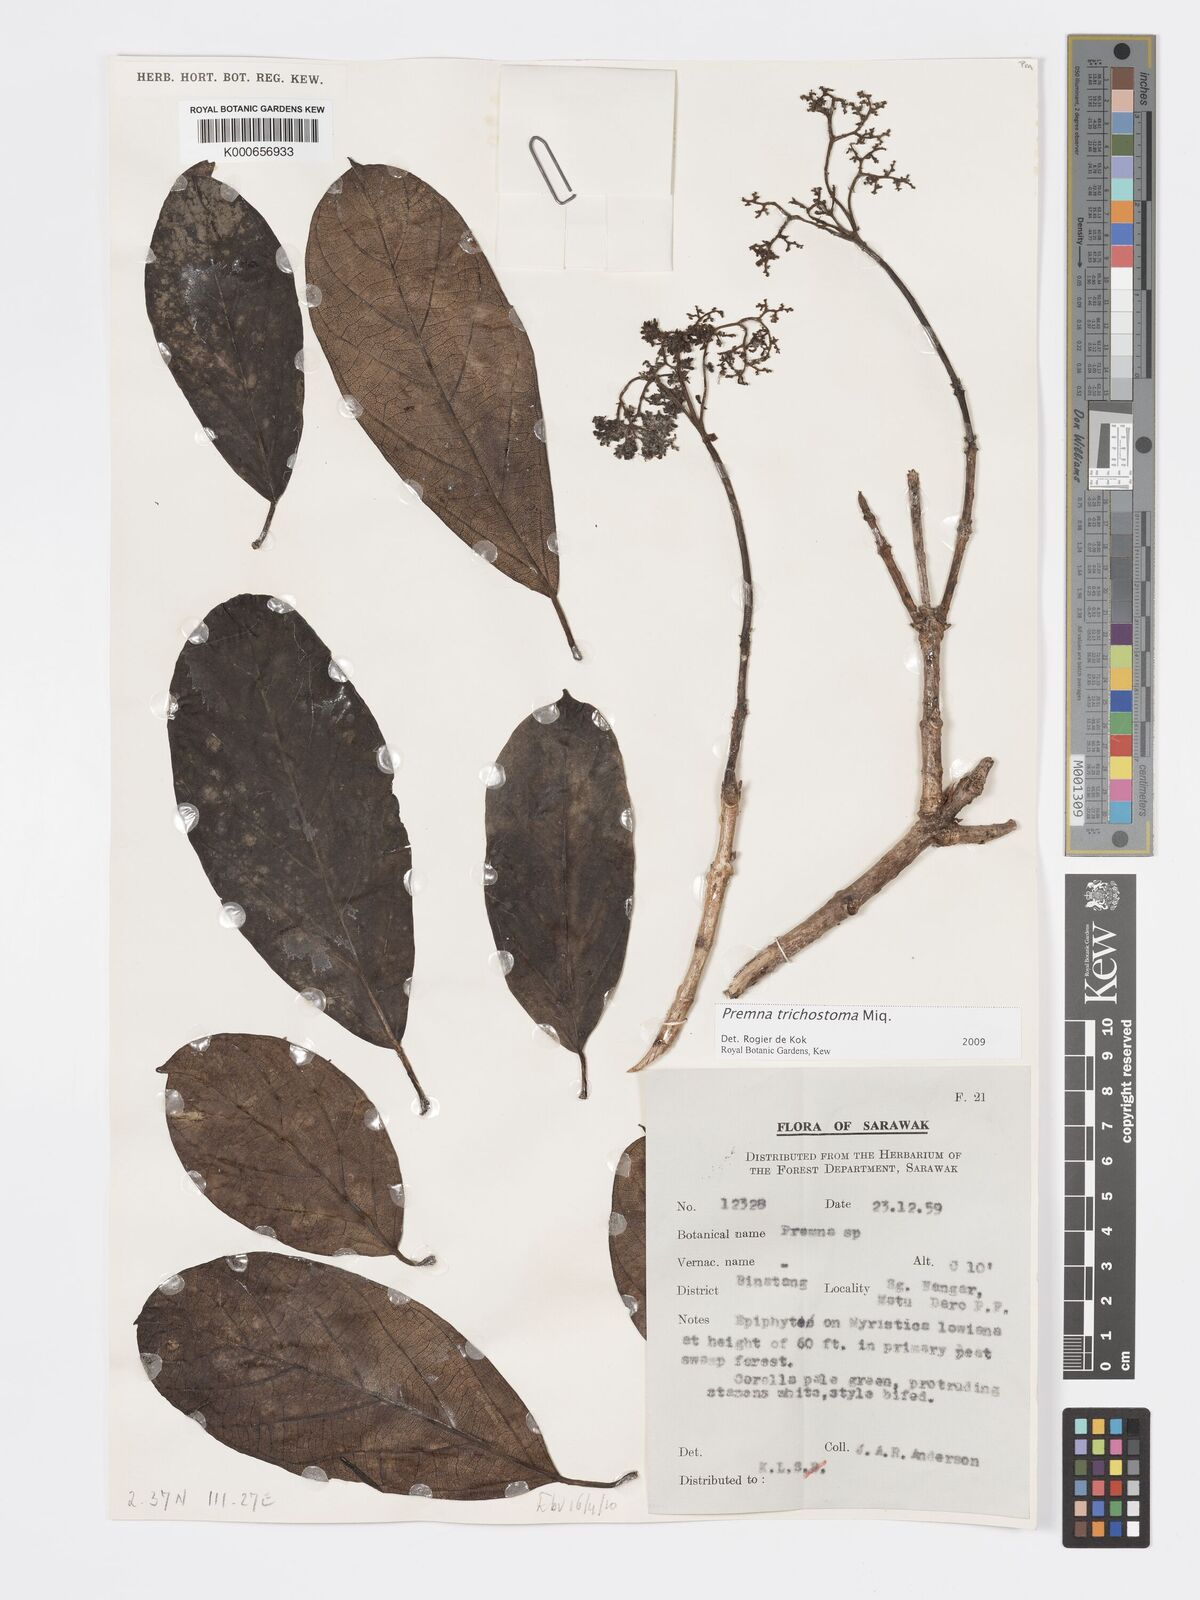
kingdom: Plantae
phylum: Tracheophyta
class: Magnoliopsida
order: Lamiales
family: Lamiaceae
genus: Premna
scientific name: Premna trichostoma
